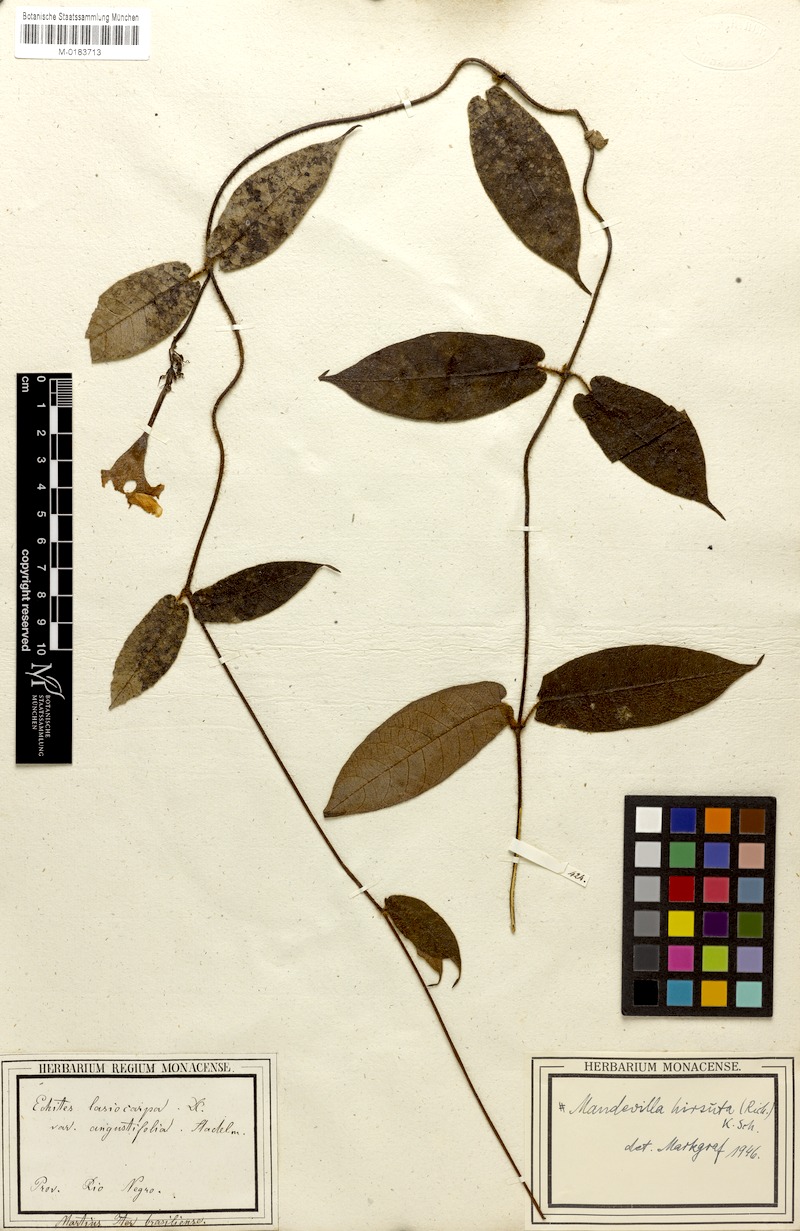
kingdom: Plantae
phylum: Tracheophyta
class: Magnoliopsida
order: Gentianales
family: Apocynaceae
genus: Mandevilla
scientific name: Mandevilla hirsuta
